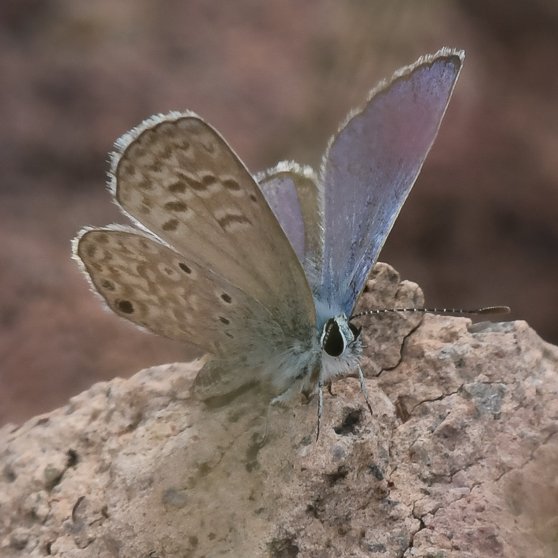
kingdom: Animalia
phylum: Arthropoda
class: Insecta
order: Lepidoptera
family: Lycaenidae
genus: Hemiargus
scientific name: Hemiargus ceraunus
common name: Ceraunus Blue
